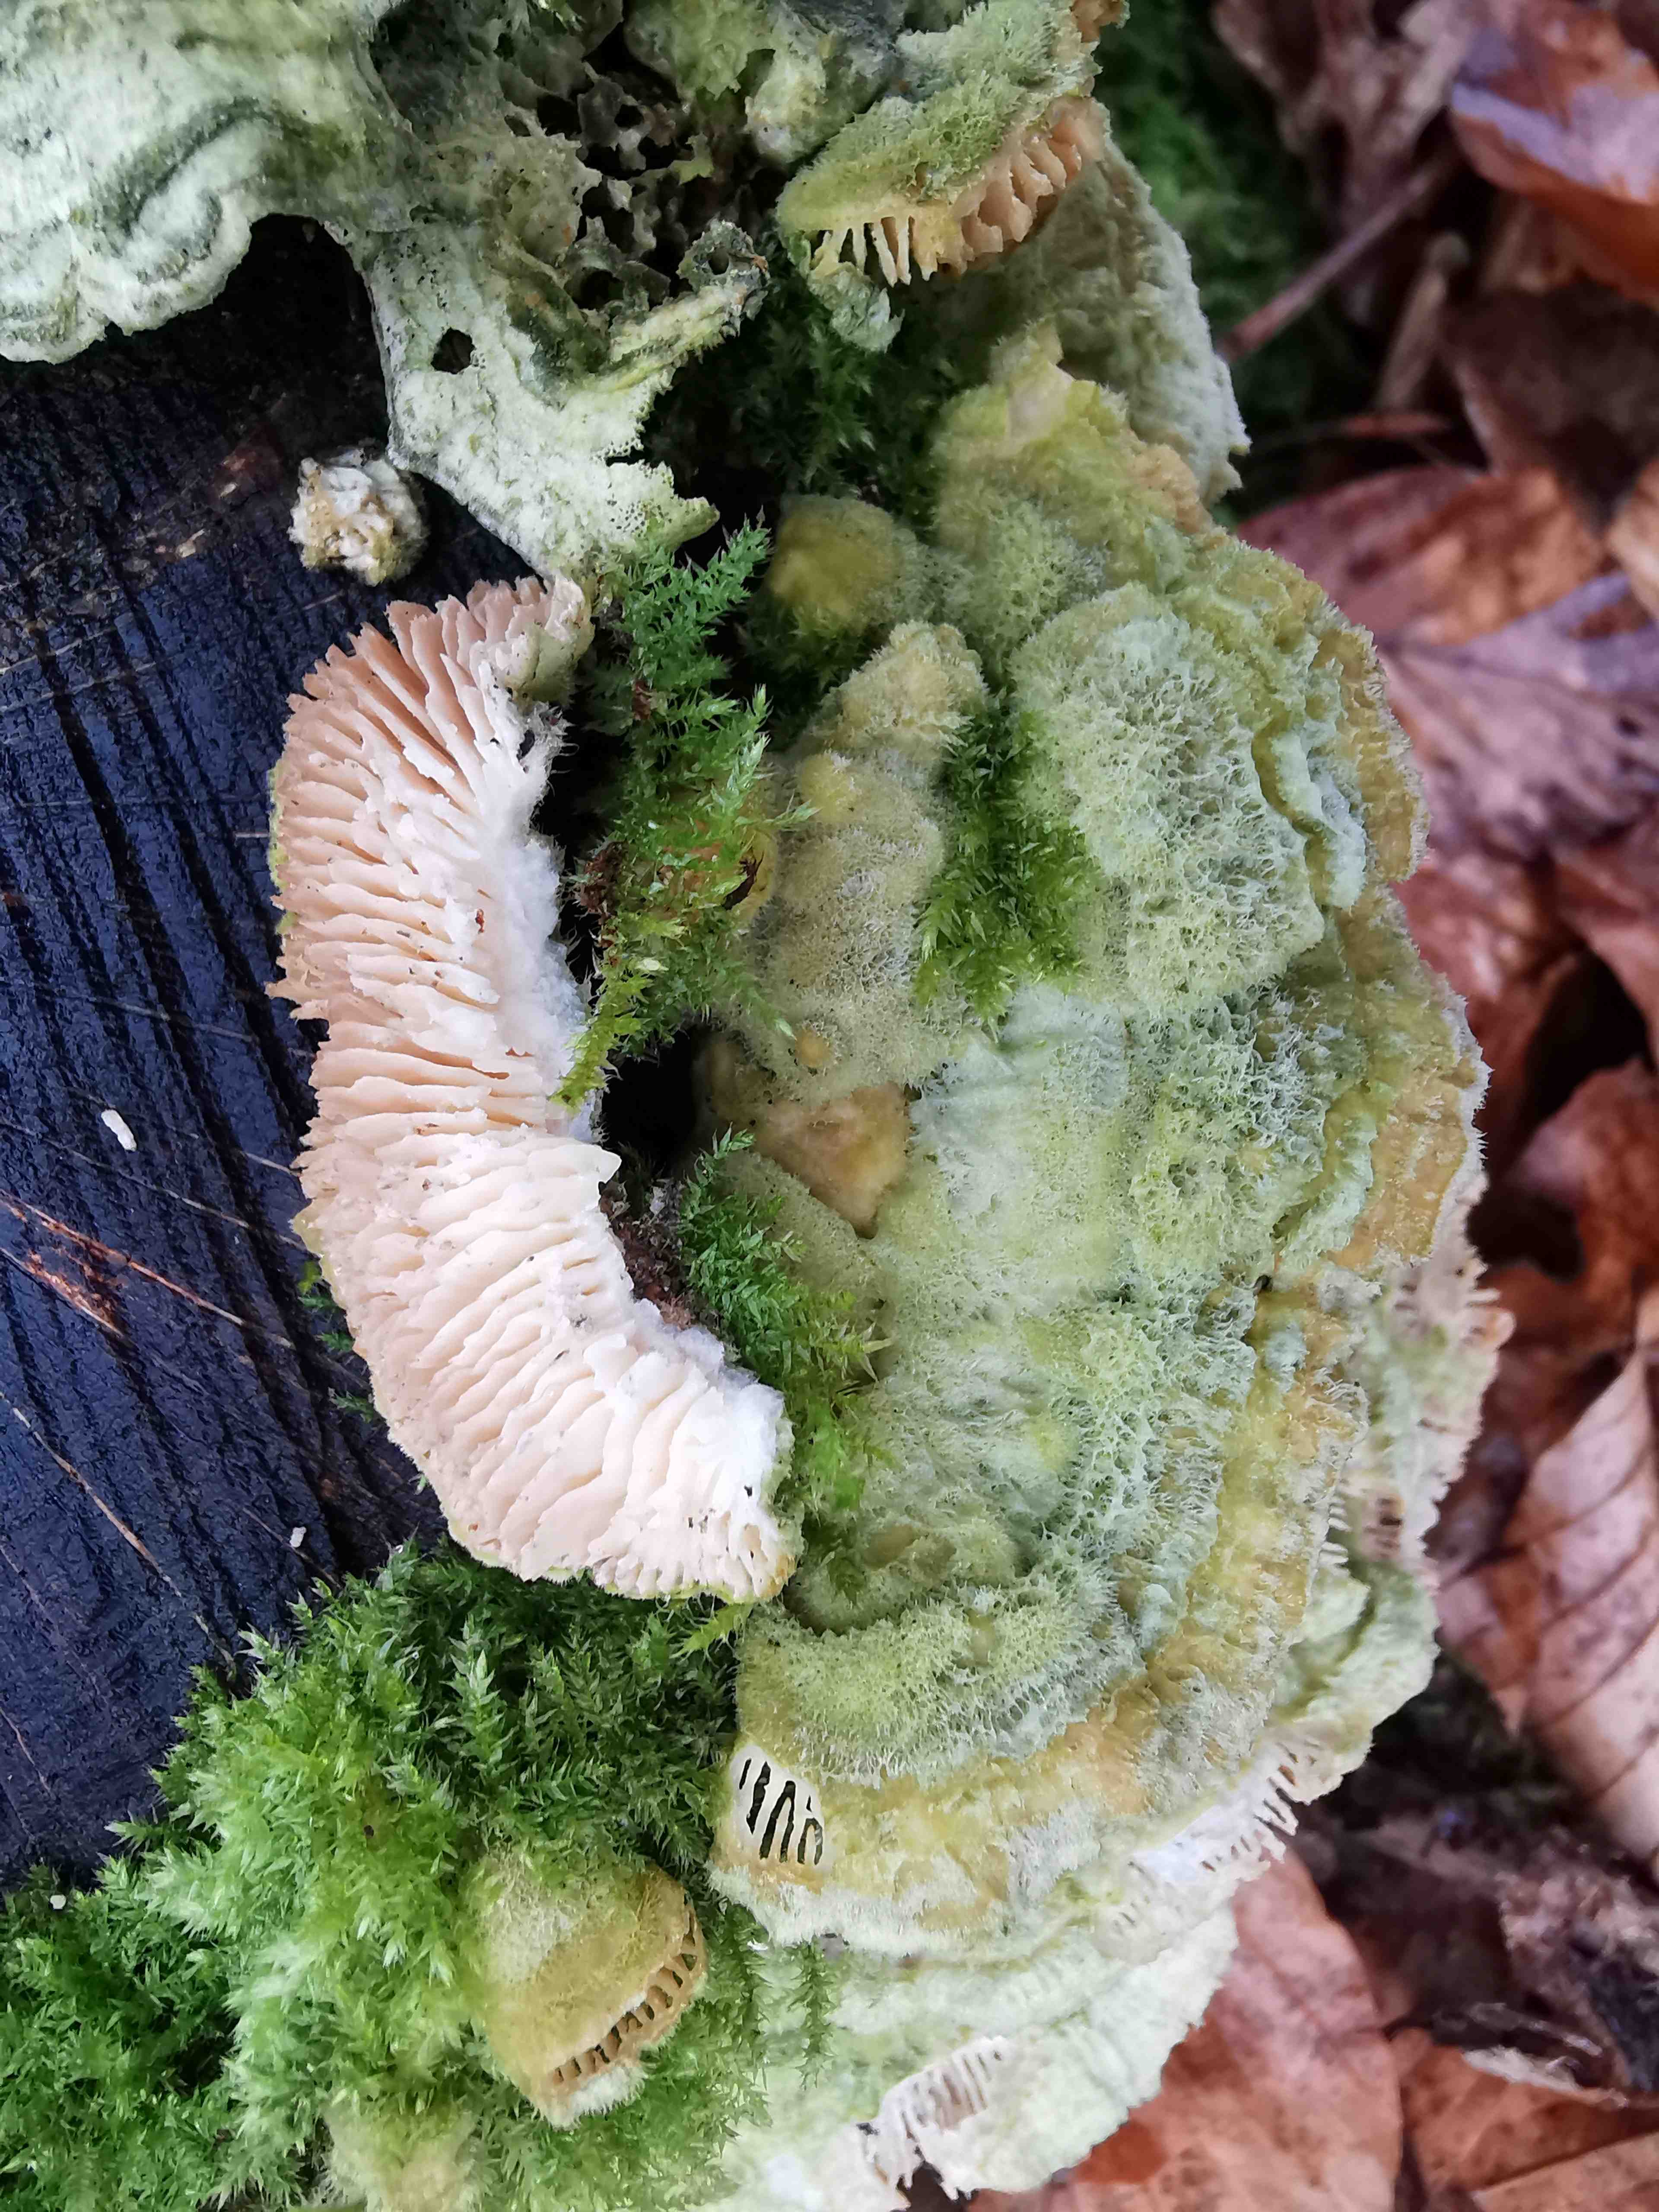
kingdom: Fungi
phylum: Basidiomycota
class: Agaricomycetes
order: Polyporales
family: Polyporaceae
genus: Lenzites
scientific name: Lenzites betulinus
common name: birke-læderporesvamp
